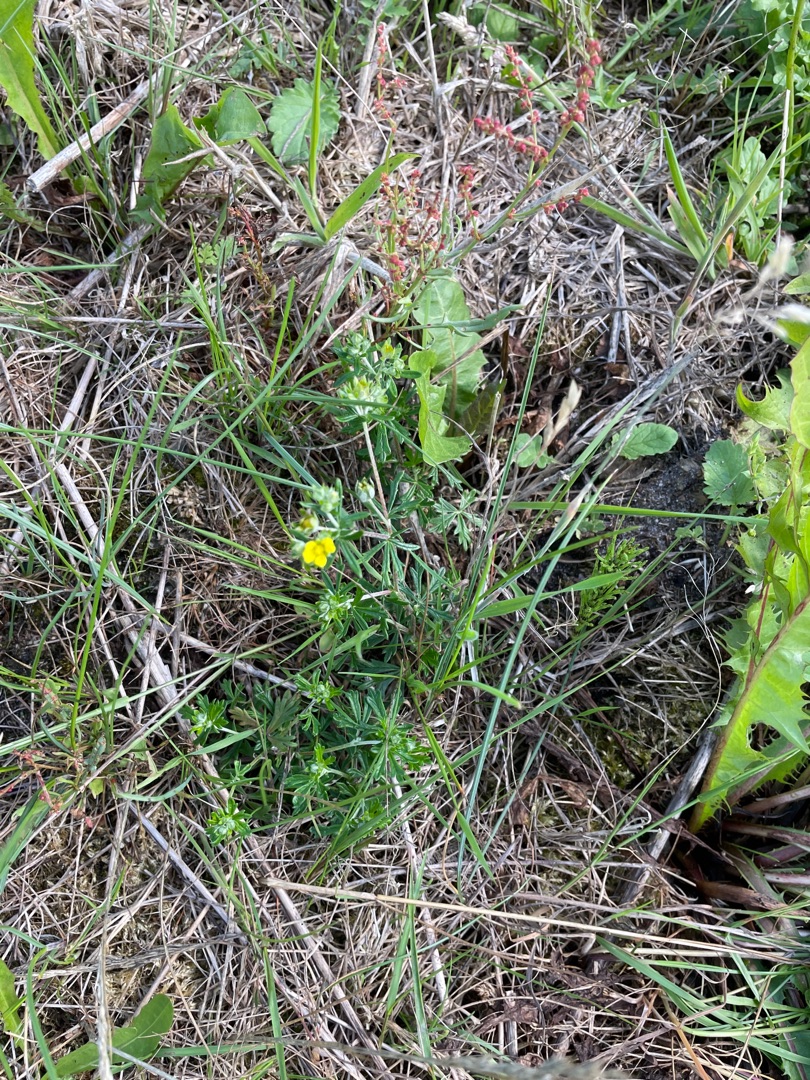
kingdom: Plantae
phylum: Tracheophyta
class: Magnoliopsida
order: Rosales
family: Rosaceae
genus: Potentilla
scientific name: Potentilla argentea
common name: Sølv-potentil
